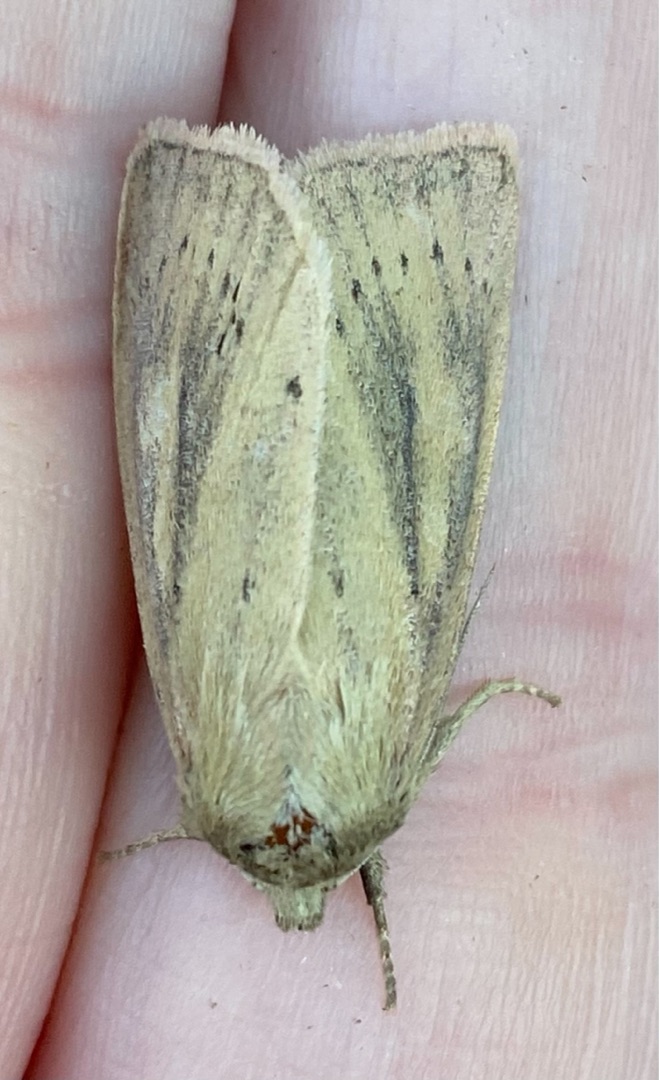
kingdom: Animalia
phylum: Arthropoda
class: Insecta
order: Lepidoptera
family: Noctuidae
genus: Globia
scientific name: Globia sparganii
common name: Sømprikket stængelborer
